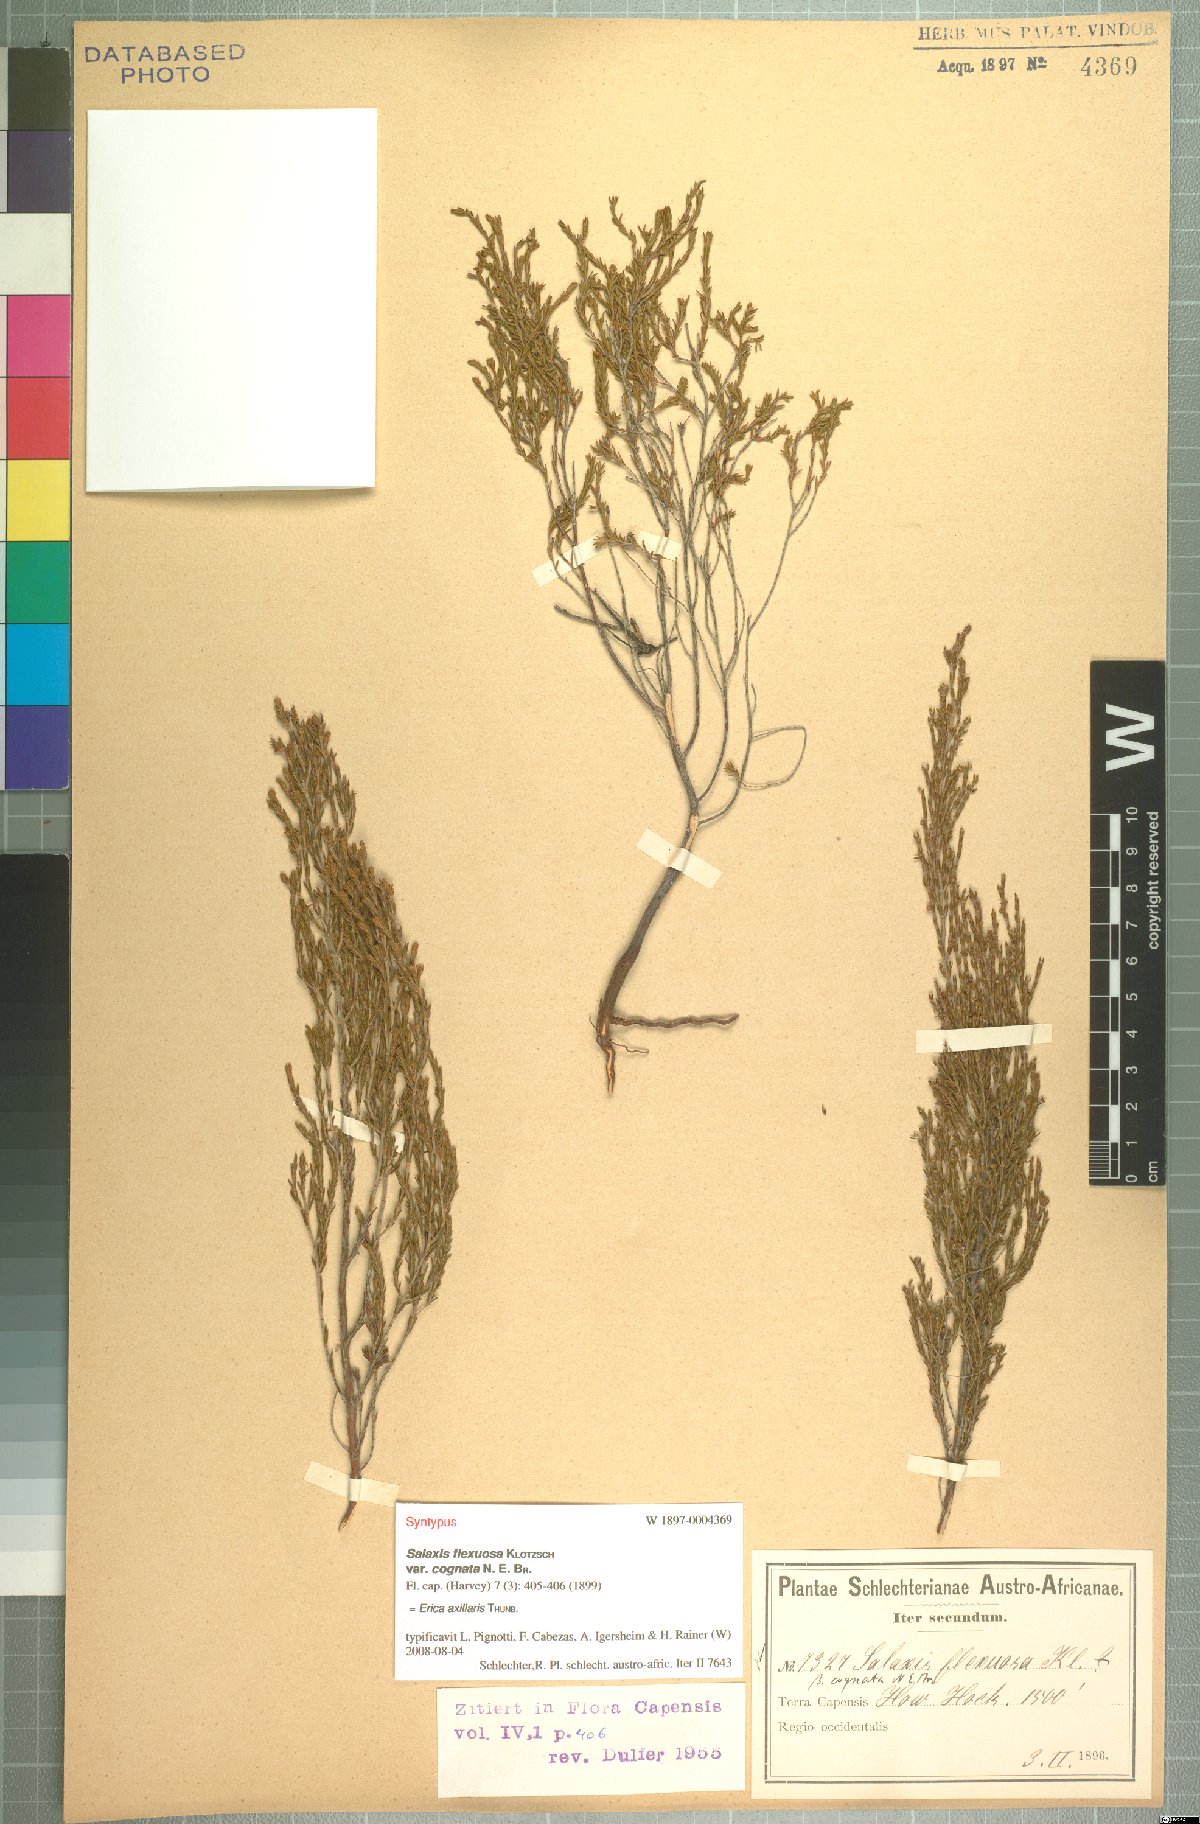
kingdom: Plantae
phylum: Tracheophyta
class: Magnoliopsida
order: Ericales
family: Ericaceae
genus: Erica
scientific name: Erica axillaris
